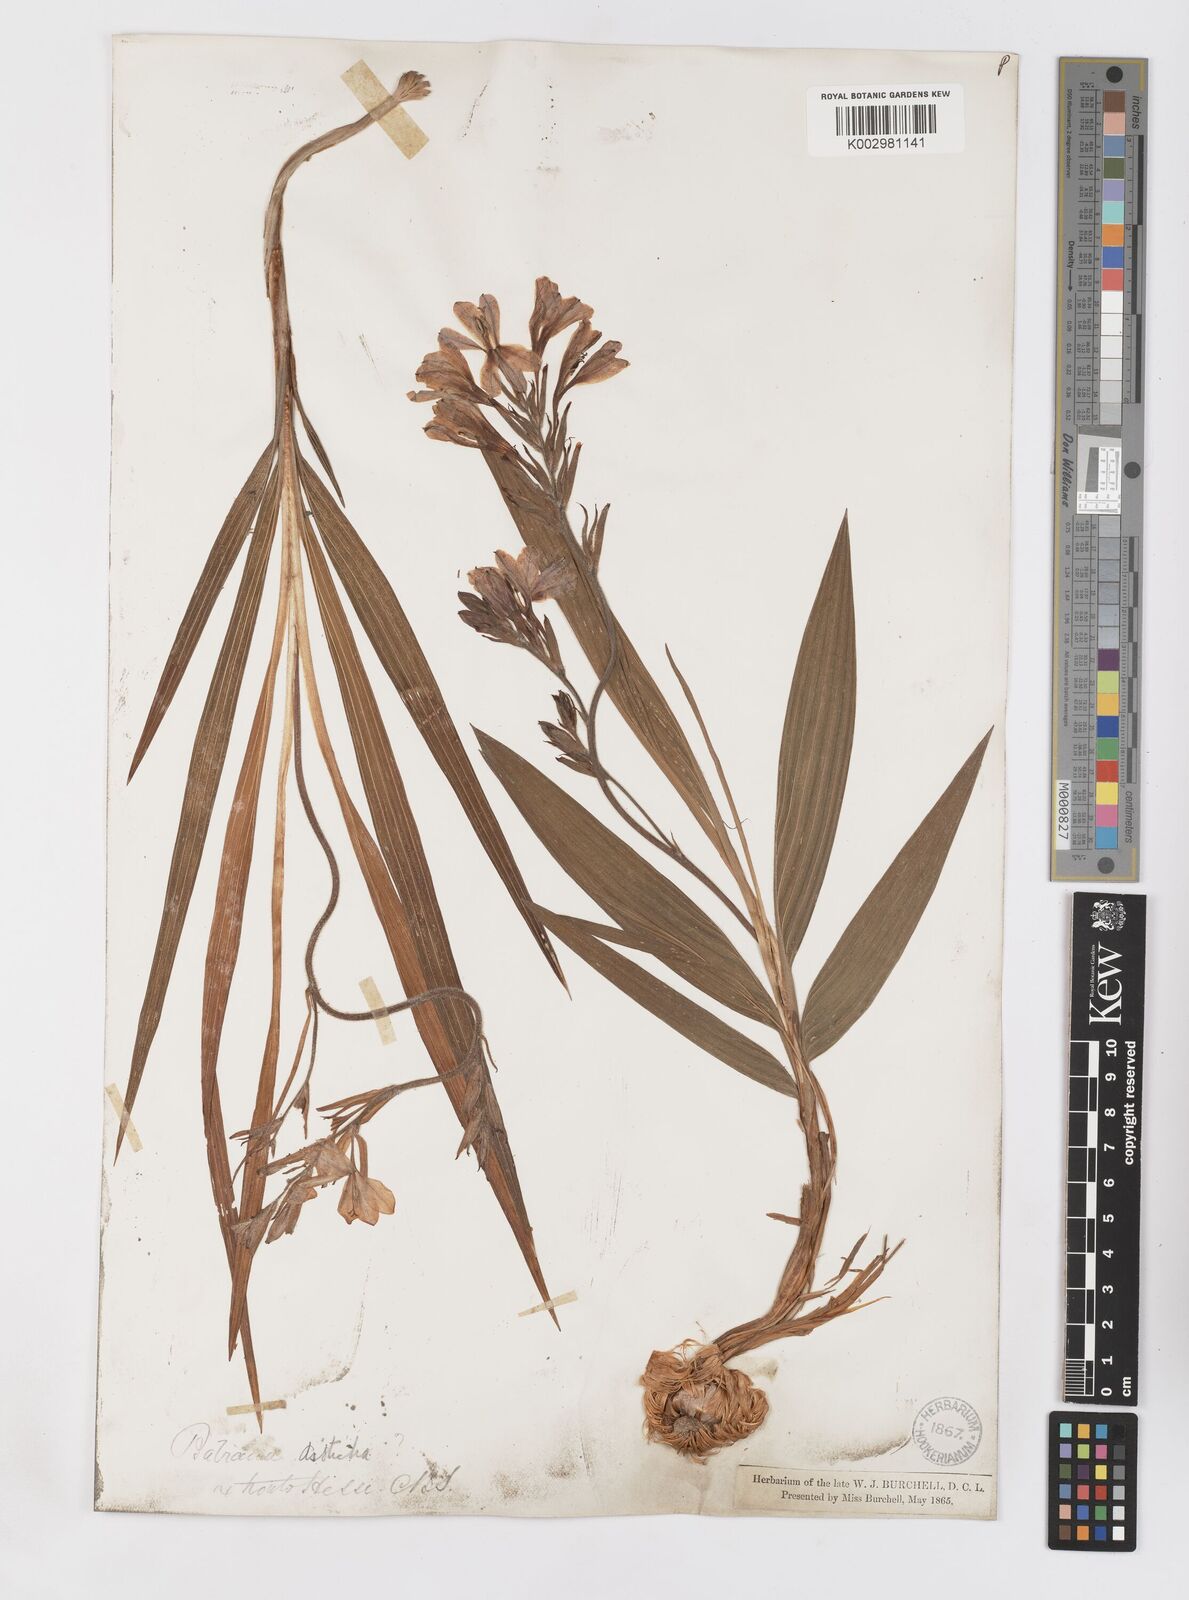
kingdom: Plantae
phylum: Tracheophyta
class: Liliopsida
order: Asparagales
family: Iridaceae
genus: Babiana
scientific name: Babiana
